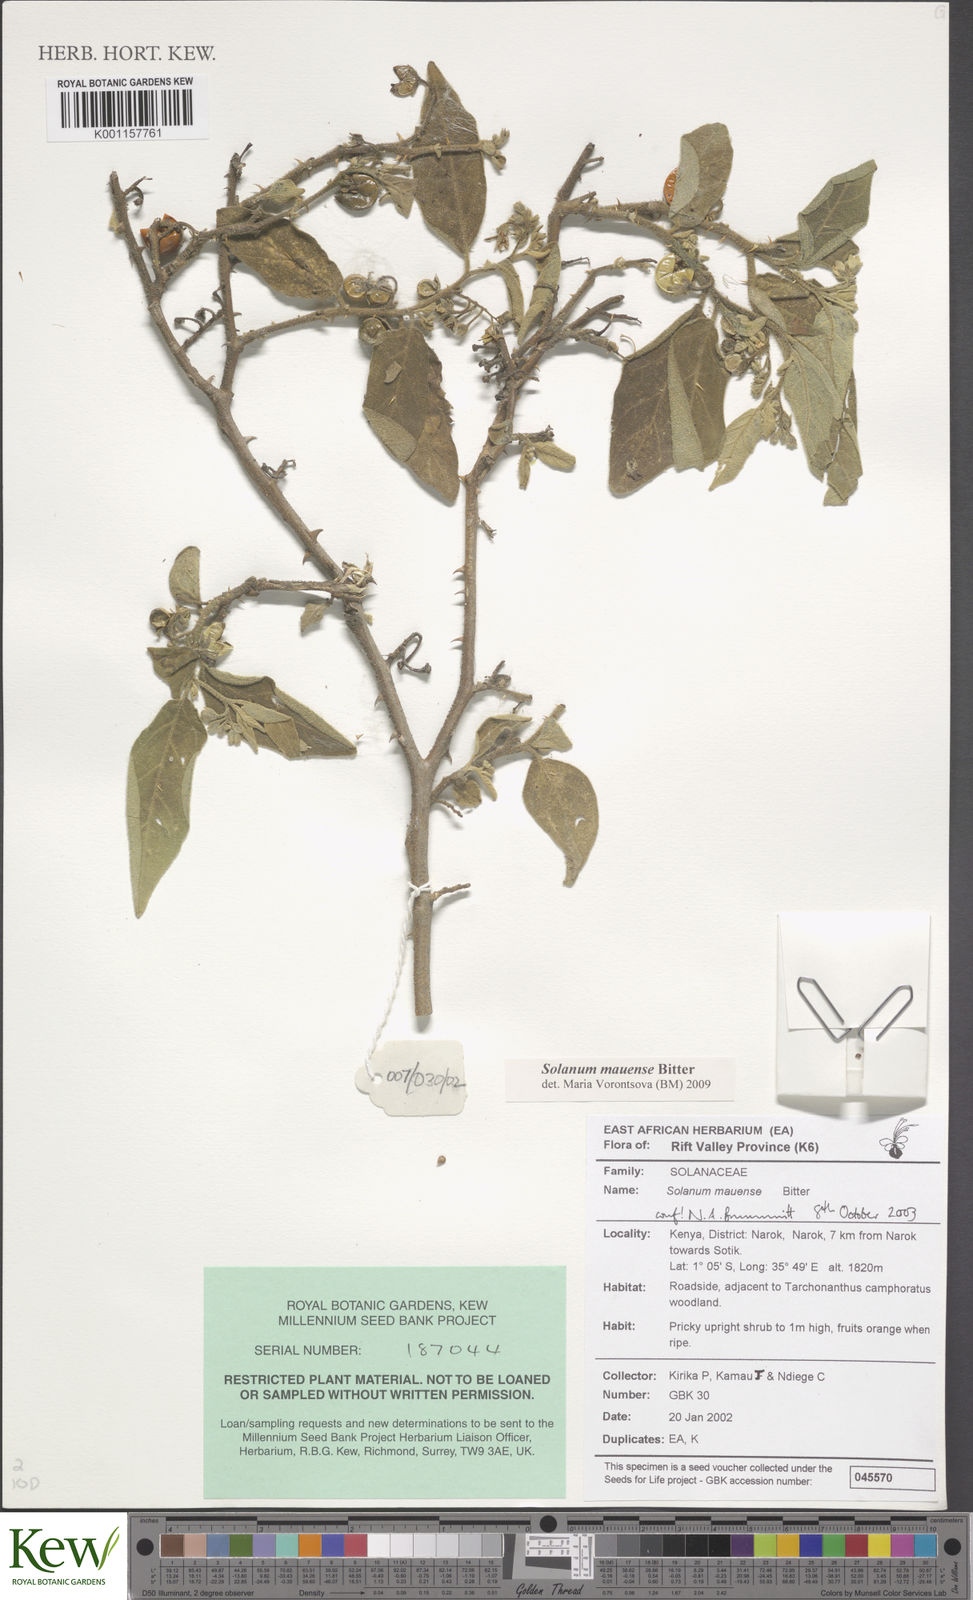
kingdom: Plantae
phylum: Tracheophyta
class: Magnoliopsida
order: Solanales
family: Solanaceae
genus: Solanum
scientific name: Solanum mauense
